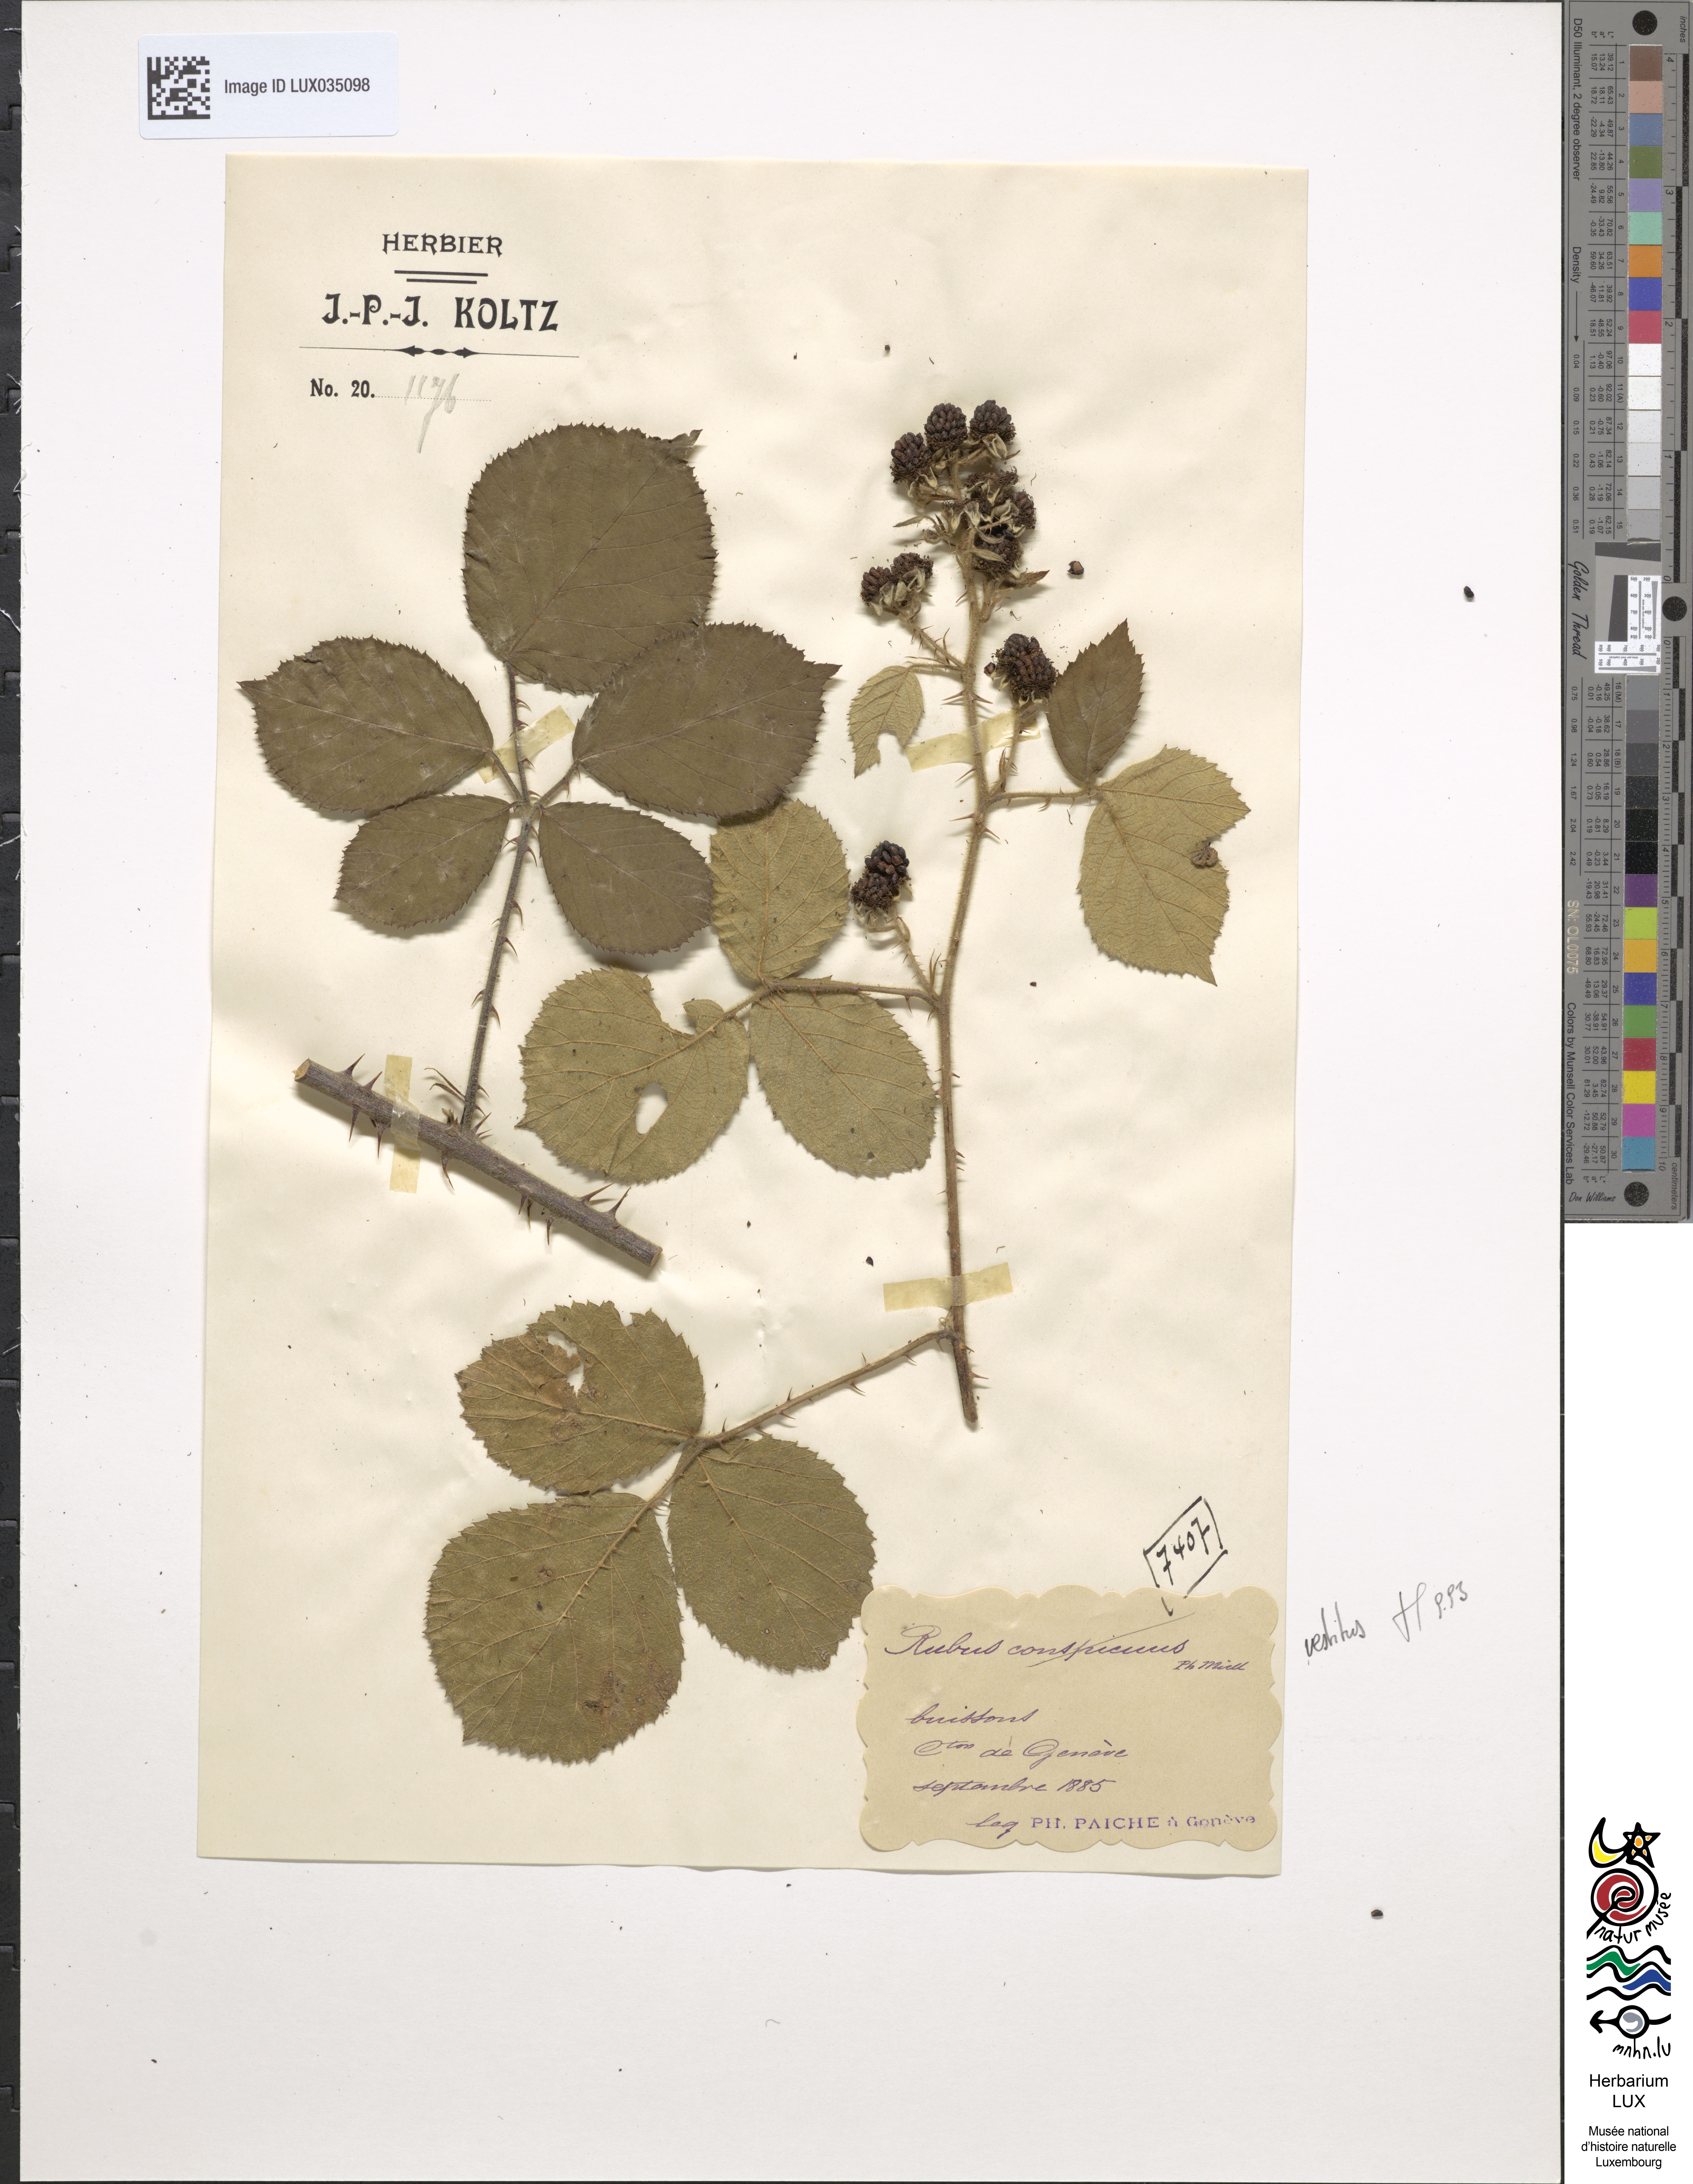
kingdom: Plantae
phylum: Tracheophyta
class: Magnoliopsida
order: Rosales
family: Rosaceae
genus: Rubus
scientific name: Rubus conspicuus
